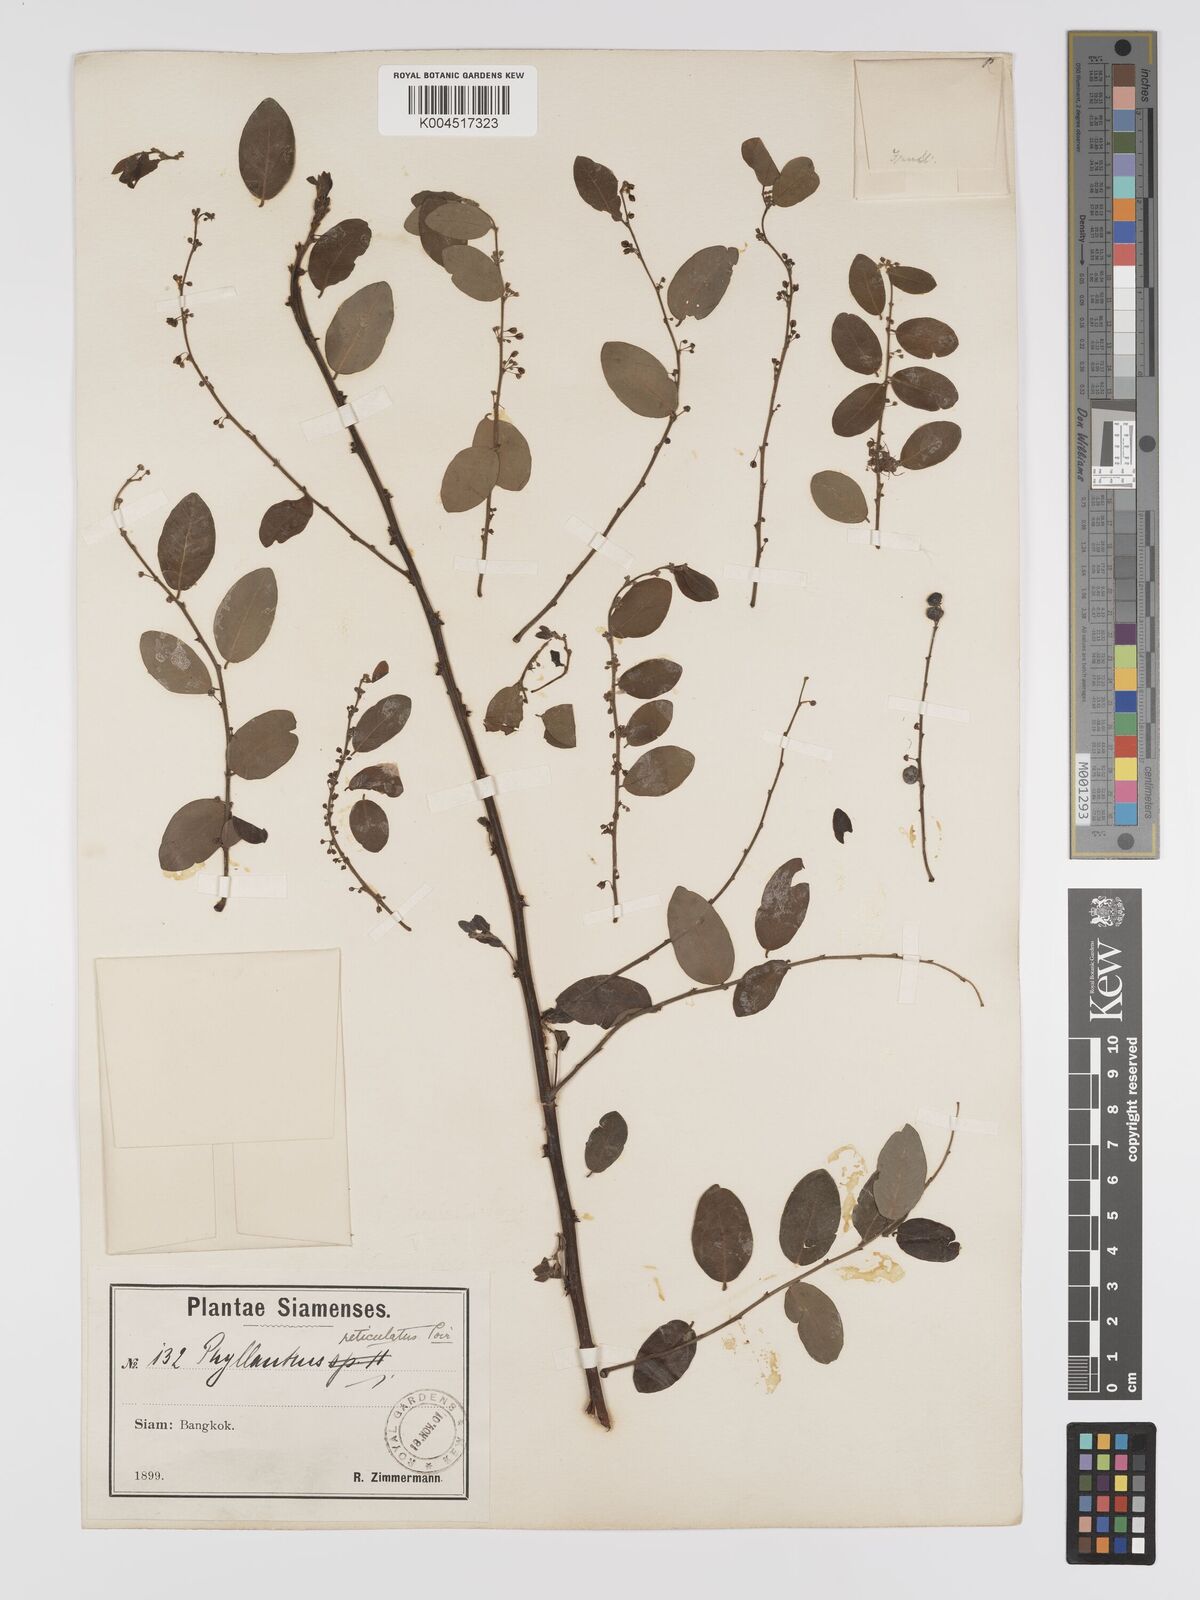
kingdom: Plantae
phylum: Tracheophyta
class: Magnoliopsida
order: Malpighiales
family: Phyllanthaceae
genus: Phyllanthus
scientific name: Phyllanthus reticulatus
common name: Potato bush
